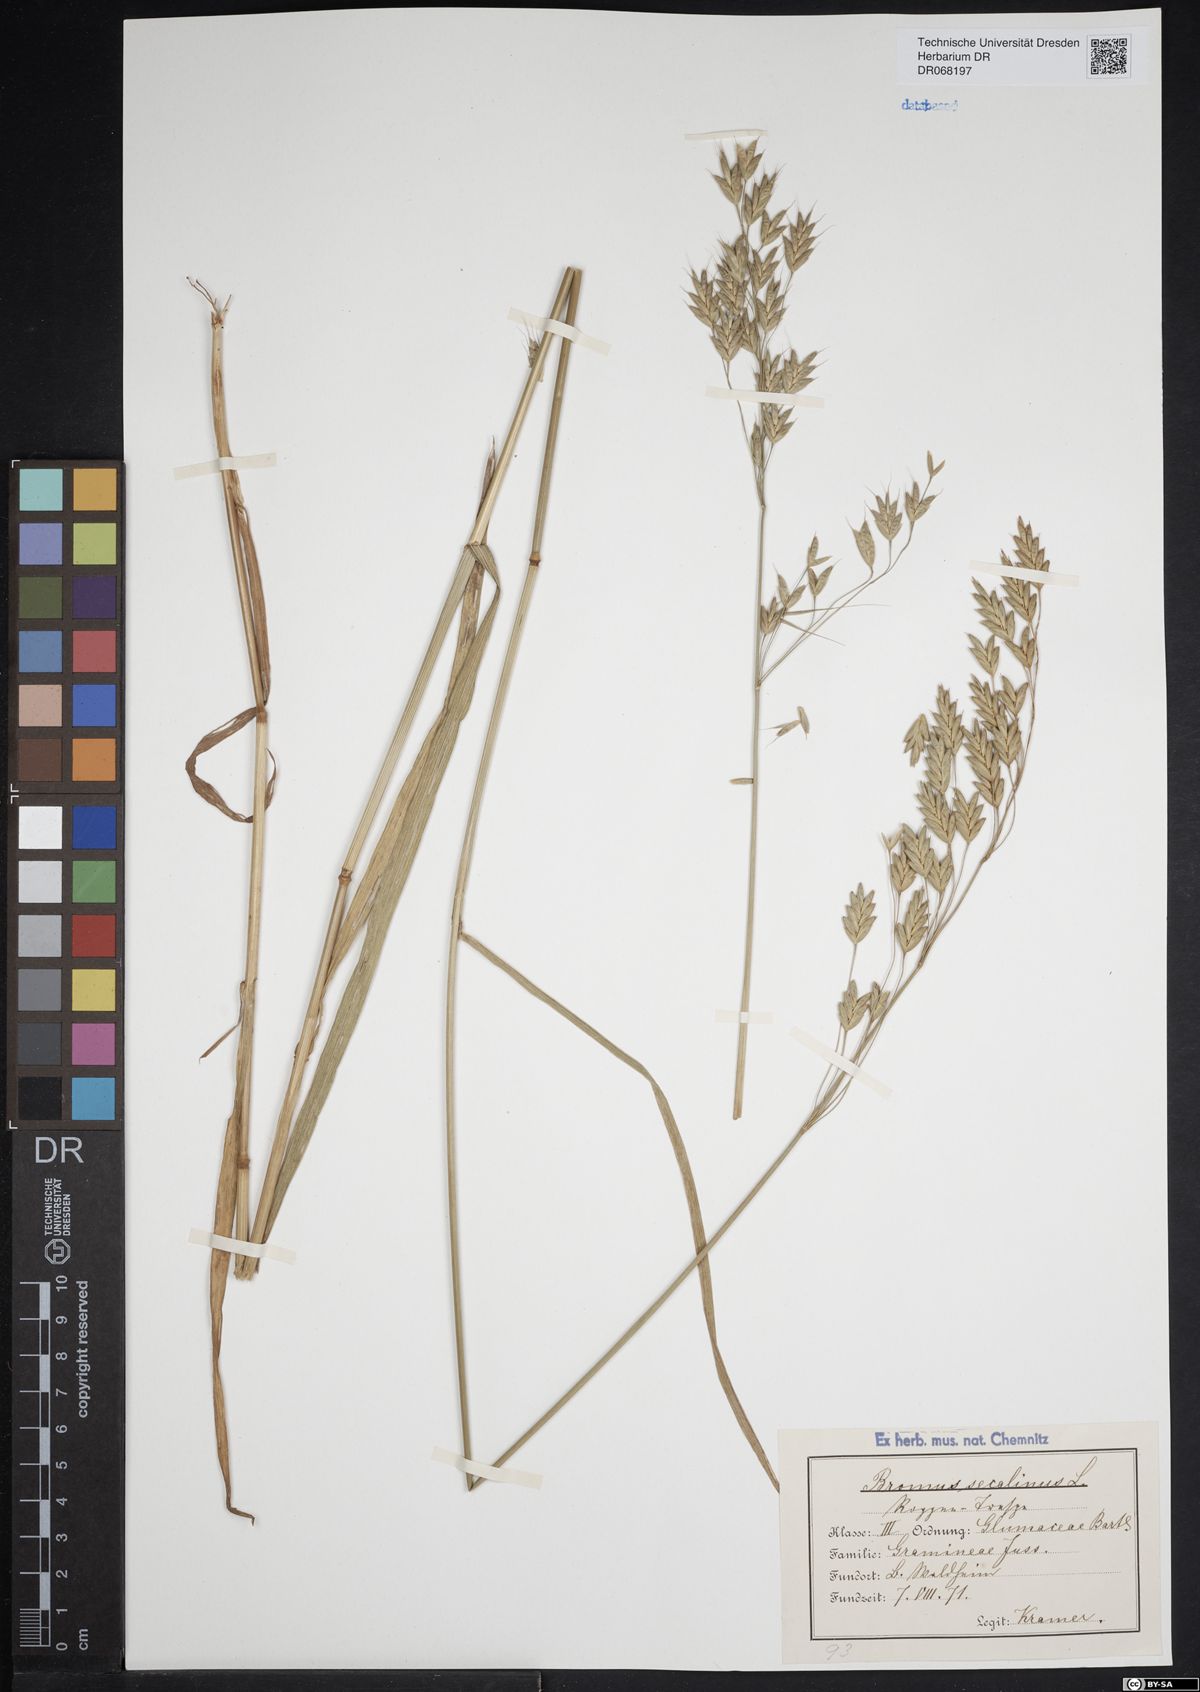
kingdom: Plantae
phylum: Tracheophyta
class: Liliopsida
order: Poales
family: Poaceae
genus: Bromus
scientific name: Bromus secalinus
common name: Rye brome
